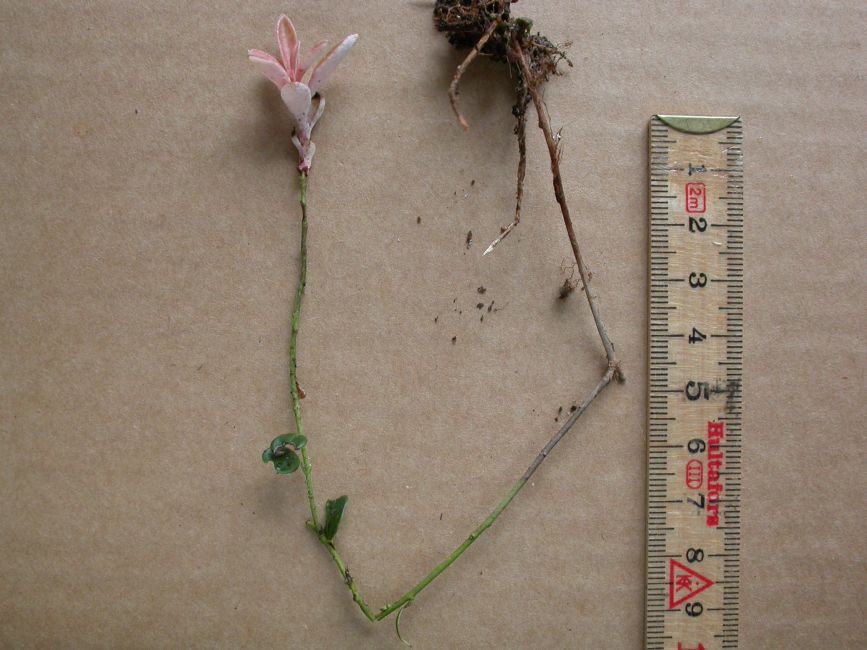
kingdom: Fungi
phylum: Basidiomycota
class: Exobasidiomycetes
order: Exobasidiales
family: Exobasidiaceae
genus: Exobasidium
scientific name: Exobasidium vaccinii
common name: tyttebærblad-bøllesvamp
